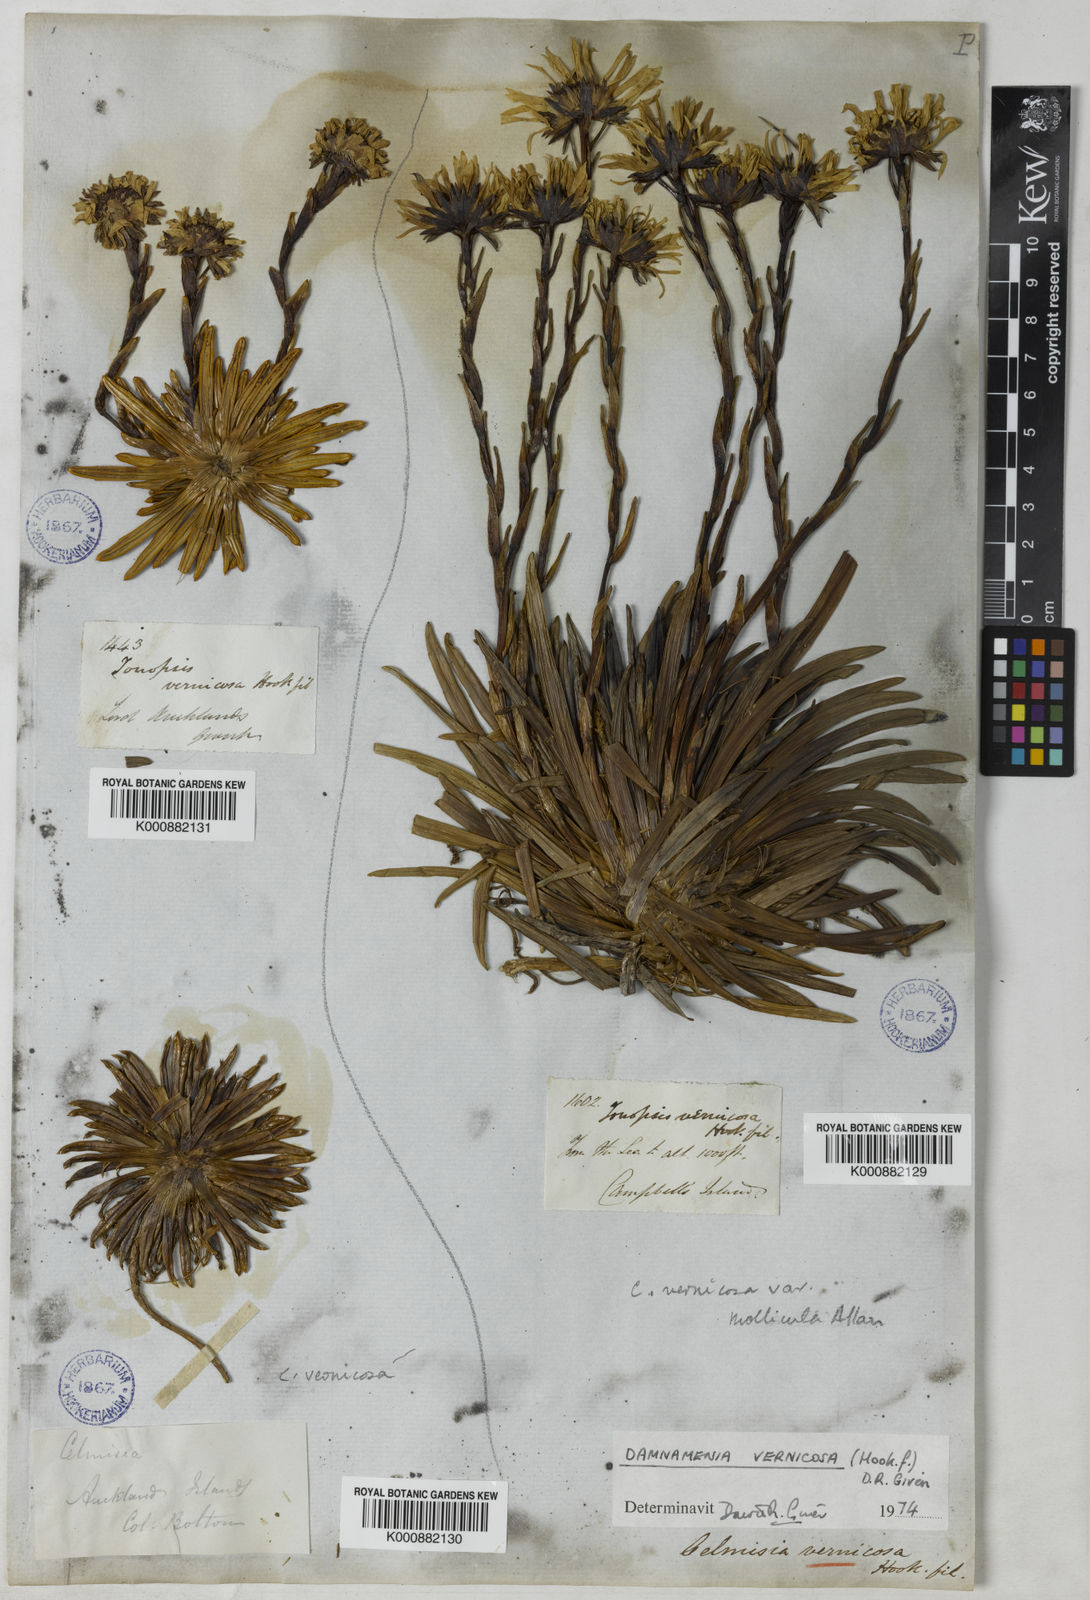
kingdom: Plantae
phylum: Tracheophyta
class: Magnoliopsida
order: Asterales
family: Asteraceae
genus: Damnamenia
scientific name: Damnamenia vernicosa
